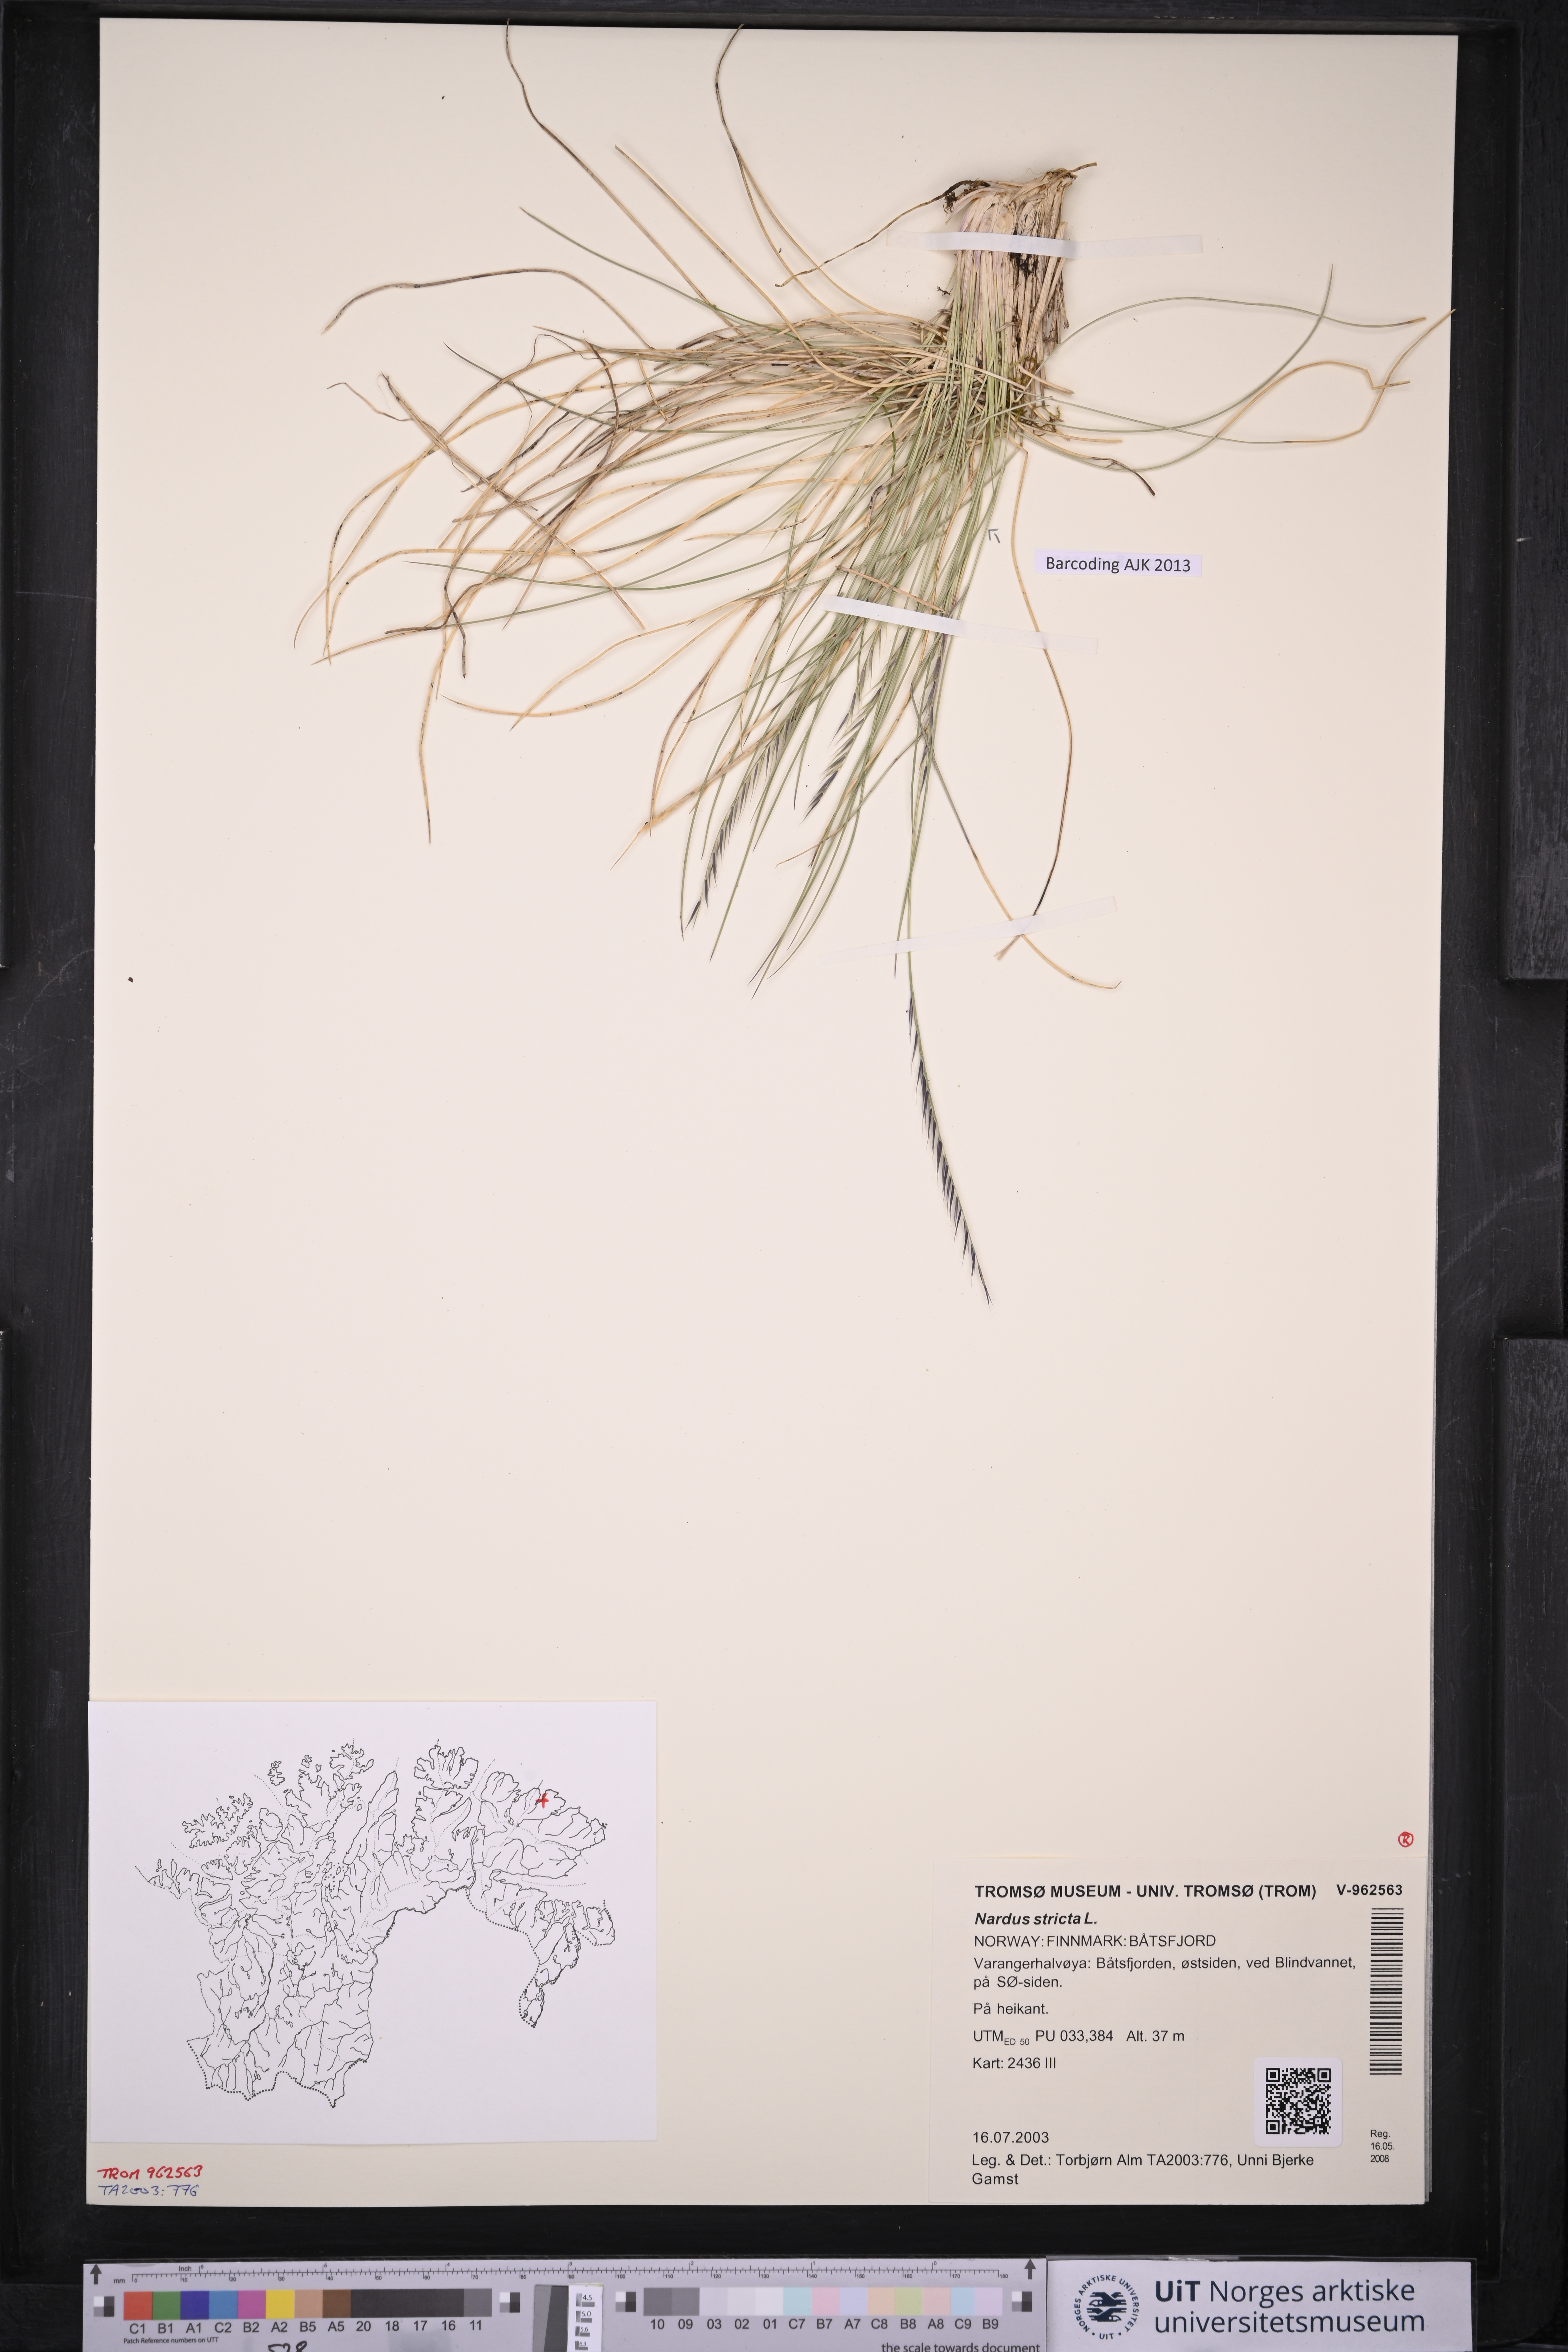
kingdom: Plantae
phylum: Tracheophyta
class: Liliopsida
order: Poales
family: Poaceae
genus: Nardus
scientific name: Nardus stricta
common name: Mat-grass
